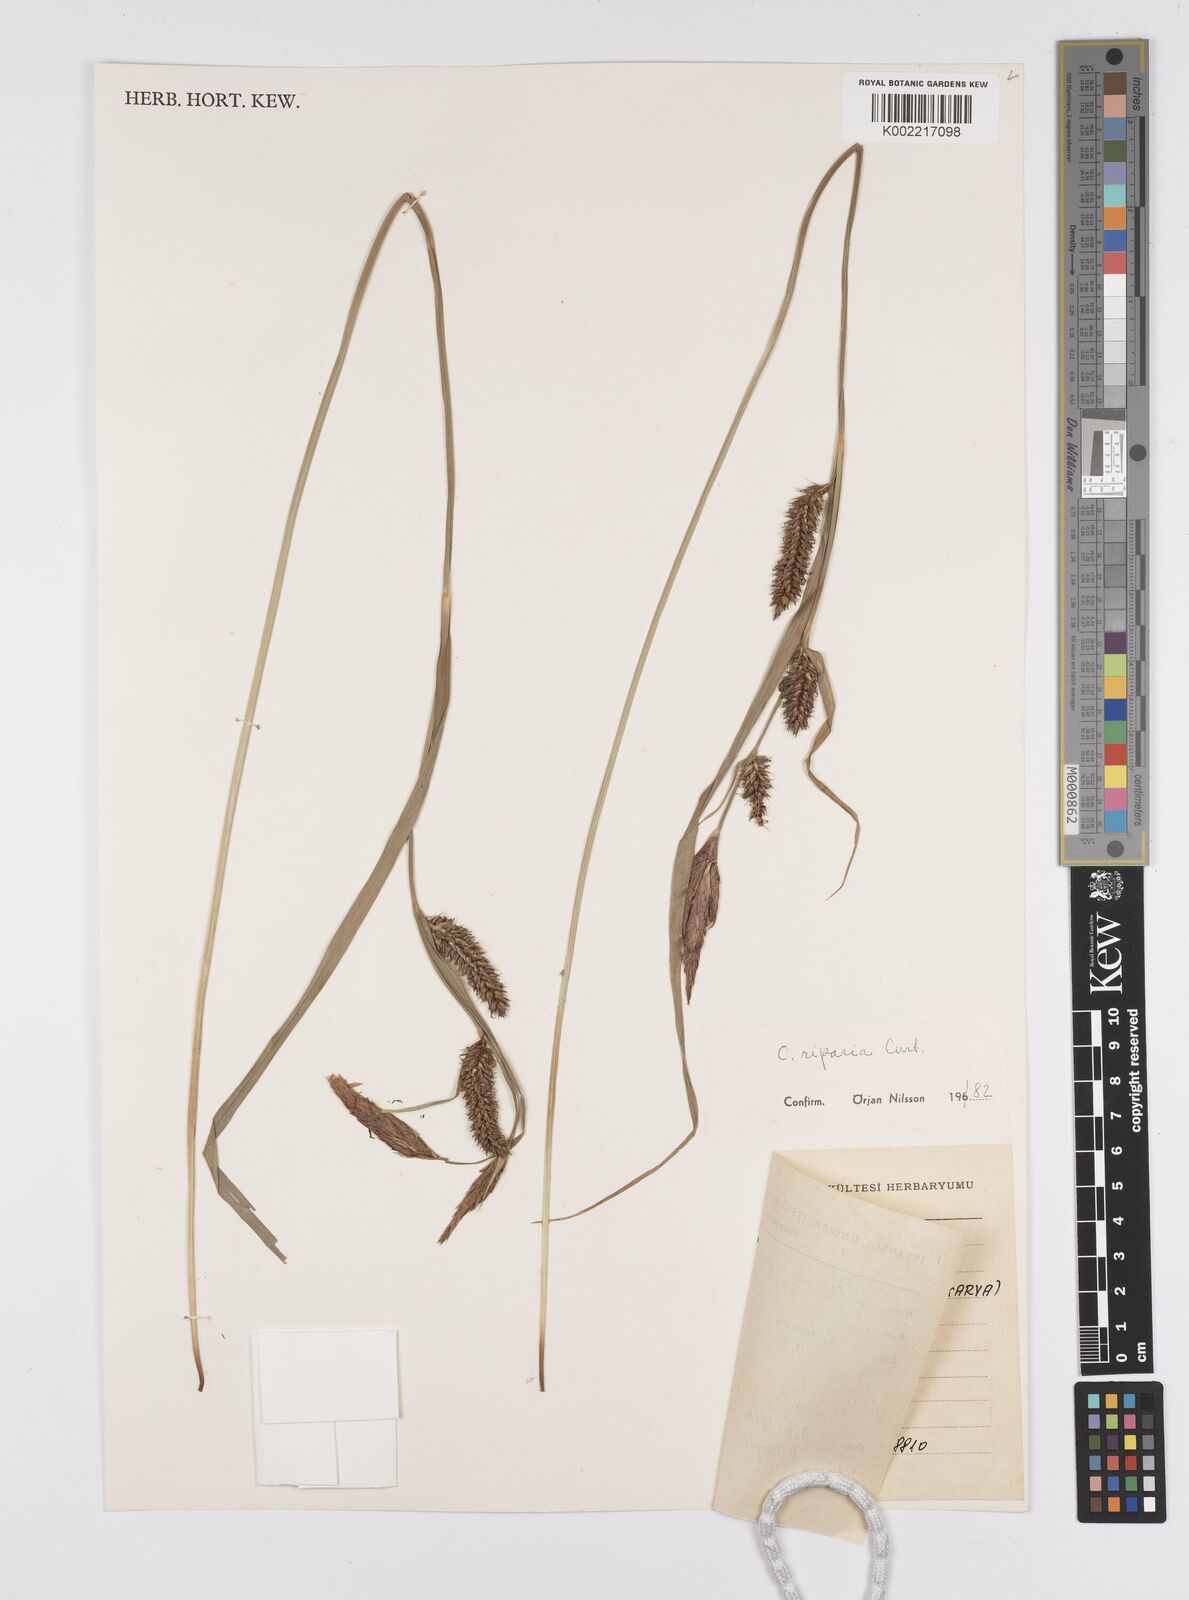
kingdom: Plantae
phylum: Tracheophyta
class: Liliopsida
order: Poales
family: Cyperaceae
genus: Carex
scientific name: Carex riparia
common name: Greater pond-sedge
